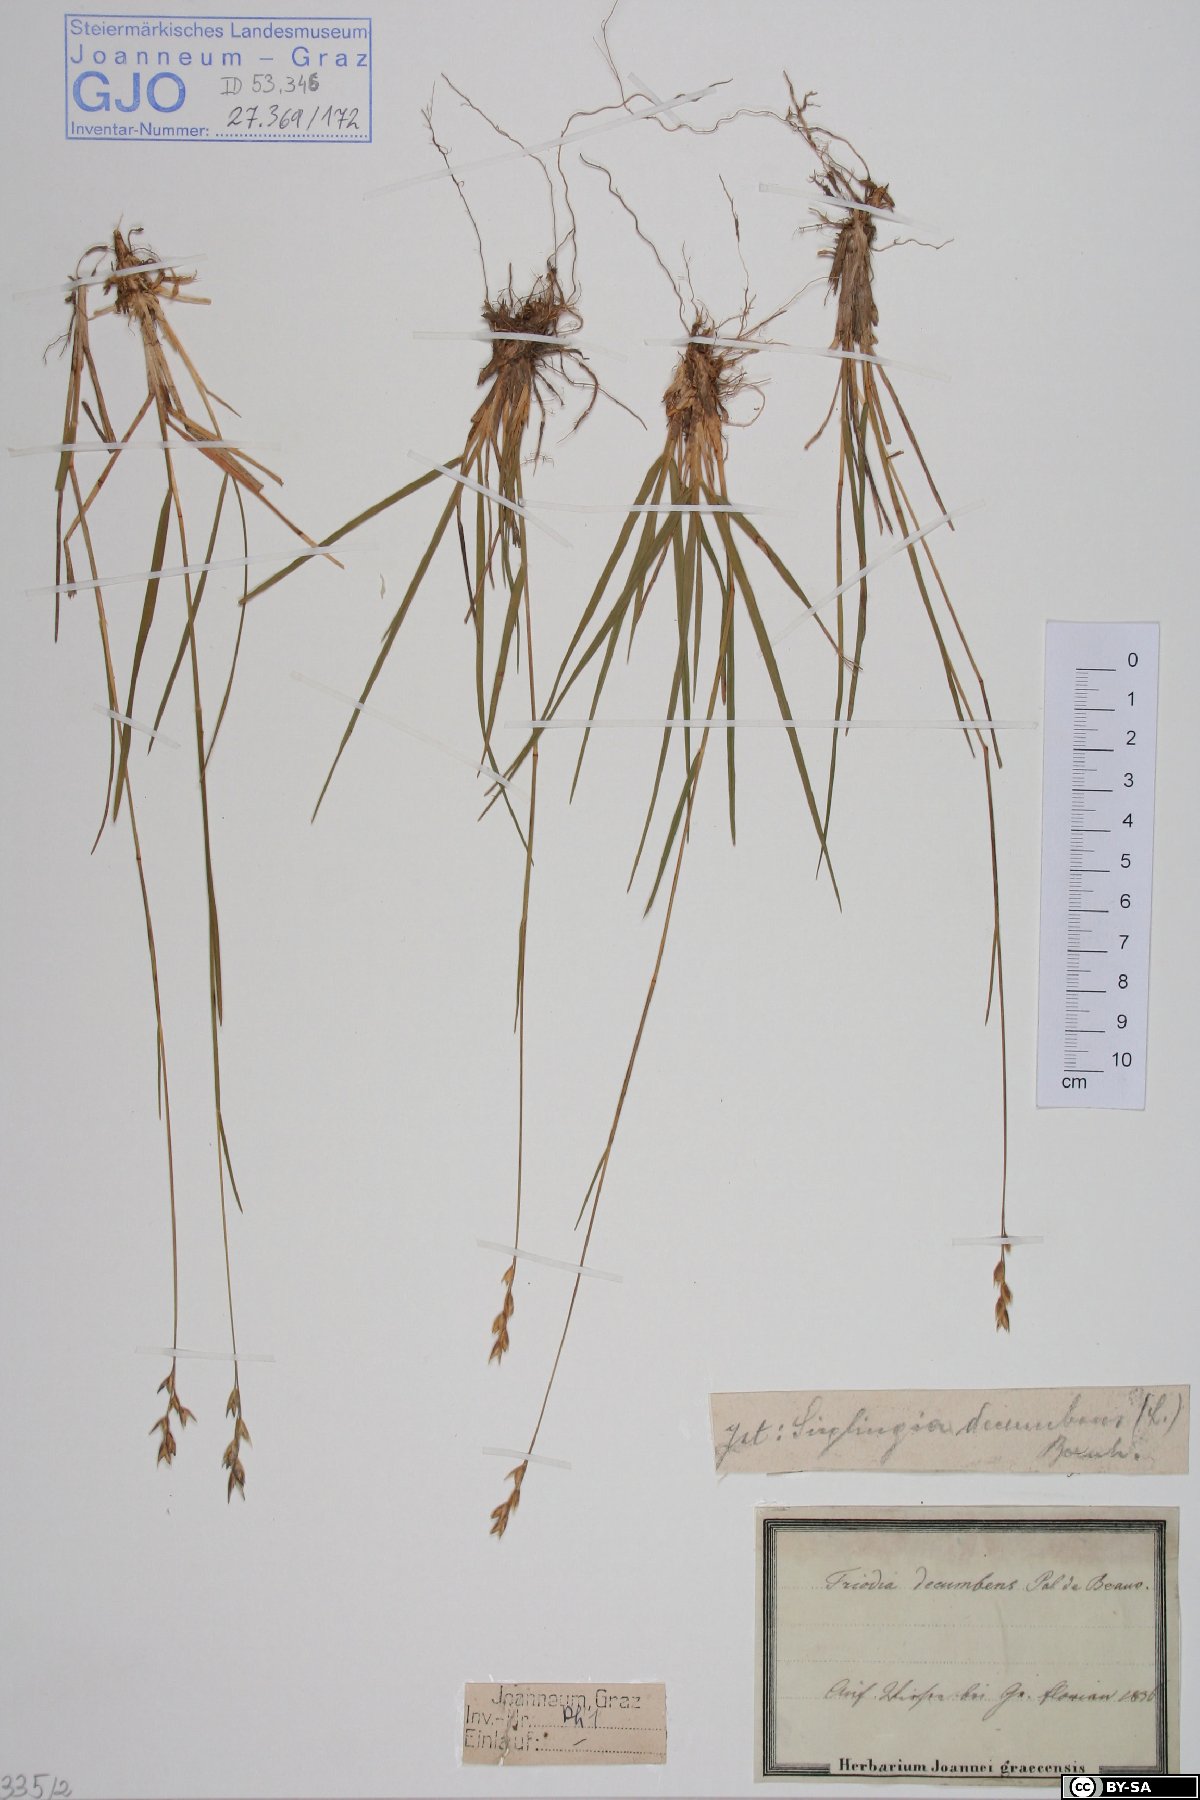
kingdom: Plantae
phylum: Tracheophyta
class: Liliopsida
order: Poales
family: Poaceae
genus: Danthonia
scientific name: Danthonia decumbens
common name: Common heathgrass
